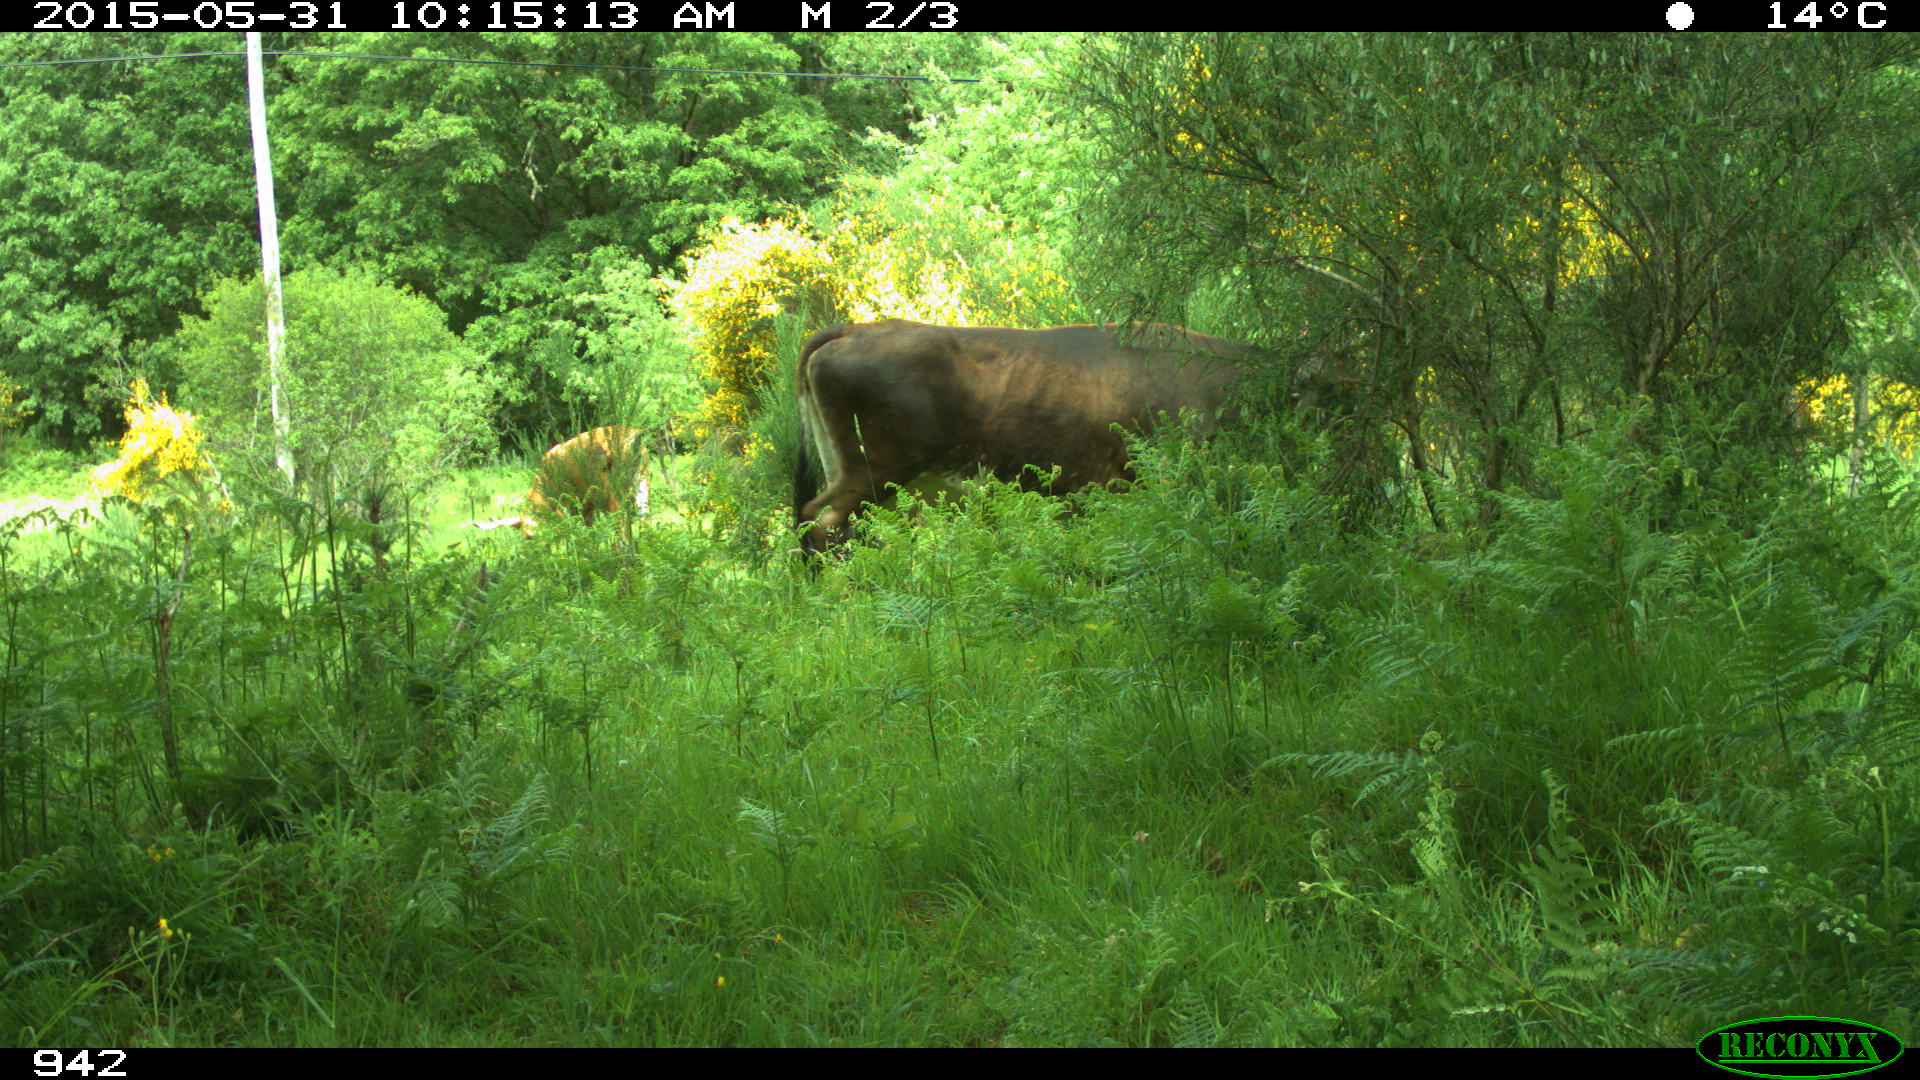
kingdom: Animalia
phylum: Chordata
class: Mammalia
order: Artiodactyla
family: Bovidae
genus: Bos
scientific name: Bos taurus
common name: Domesticated cattle
